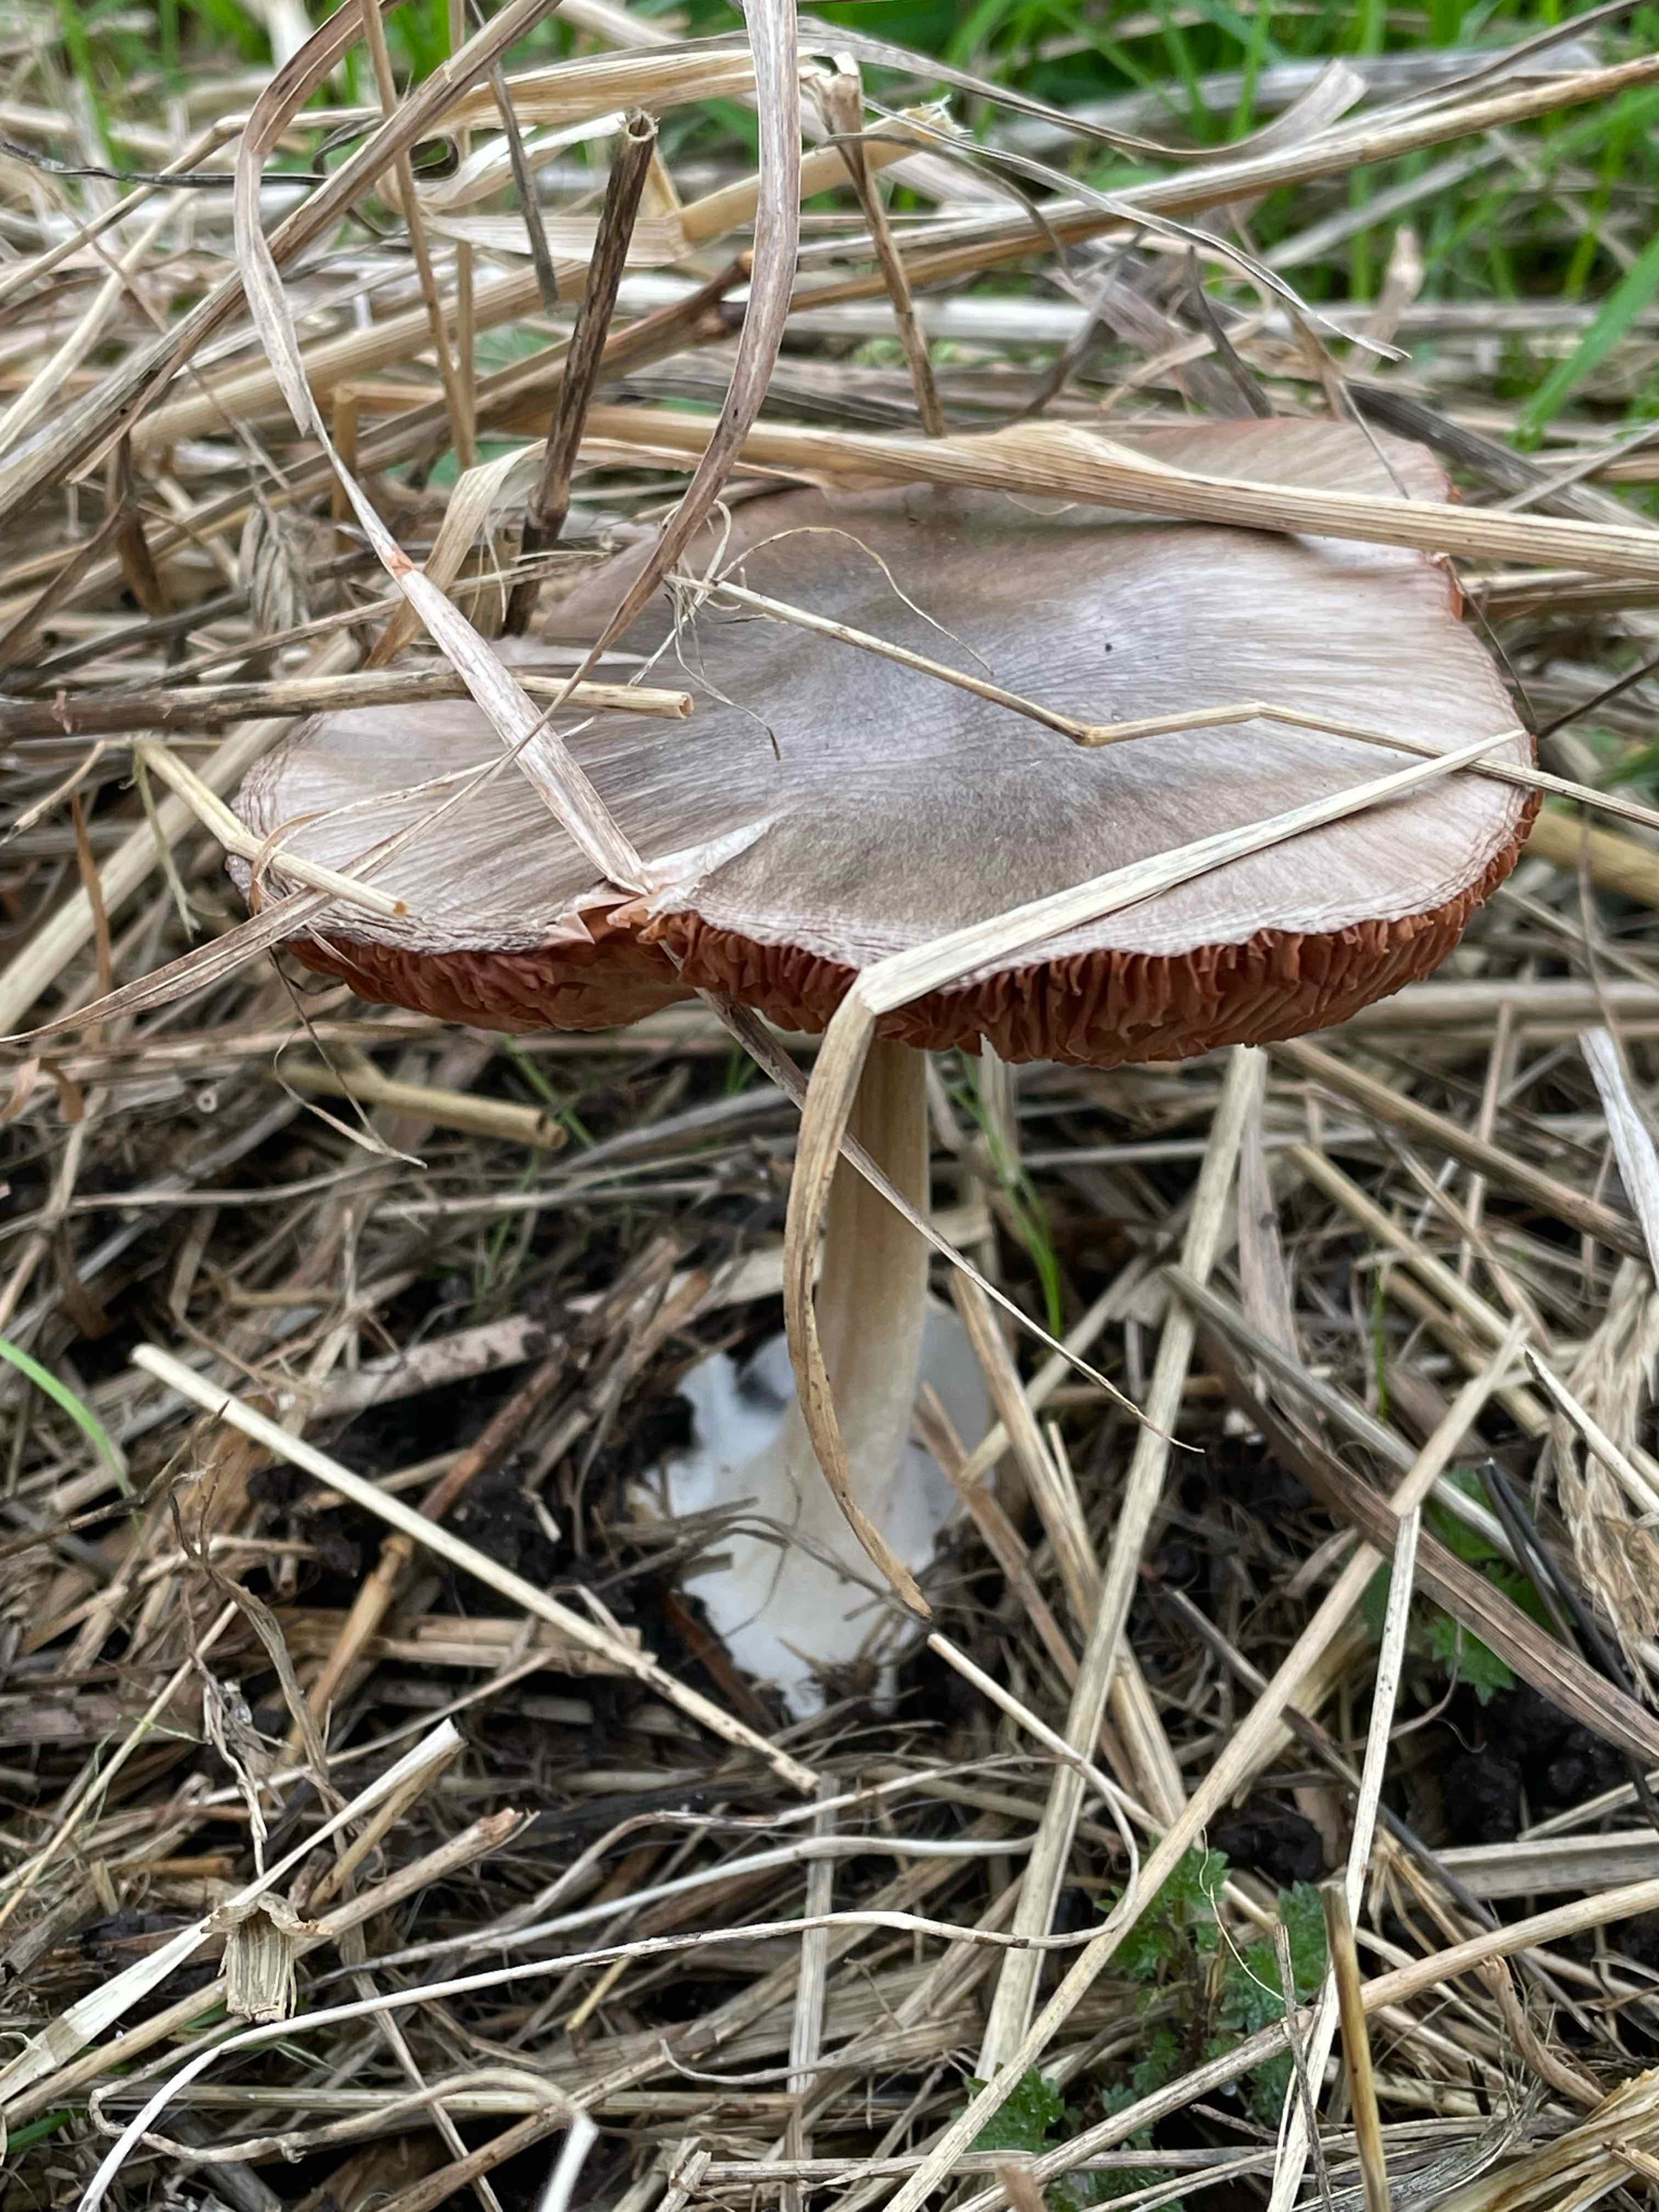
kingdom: Fungi
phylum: Basidiomycota
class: Agaricomycetes
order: Agaricales
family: Pluteaceae
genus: Volvopluteus
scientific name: Volvopluteus gloiocephalus
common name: høj posesvamp
